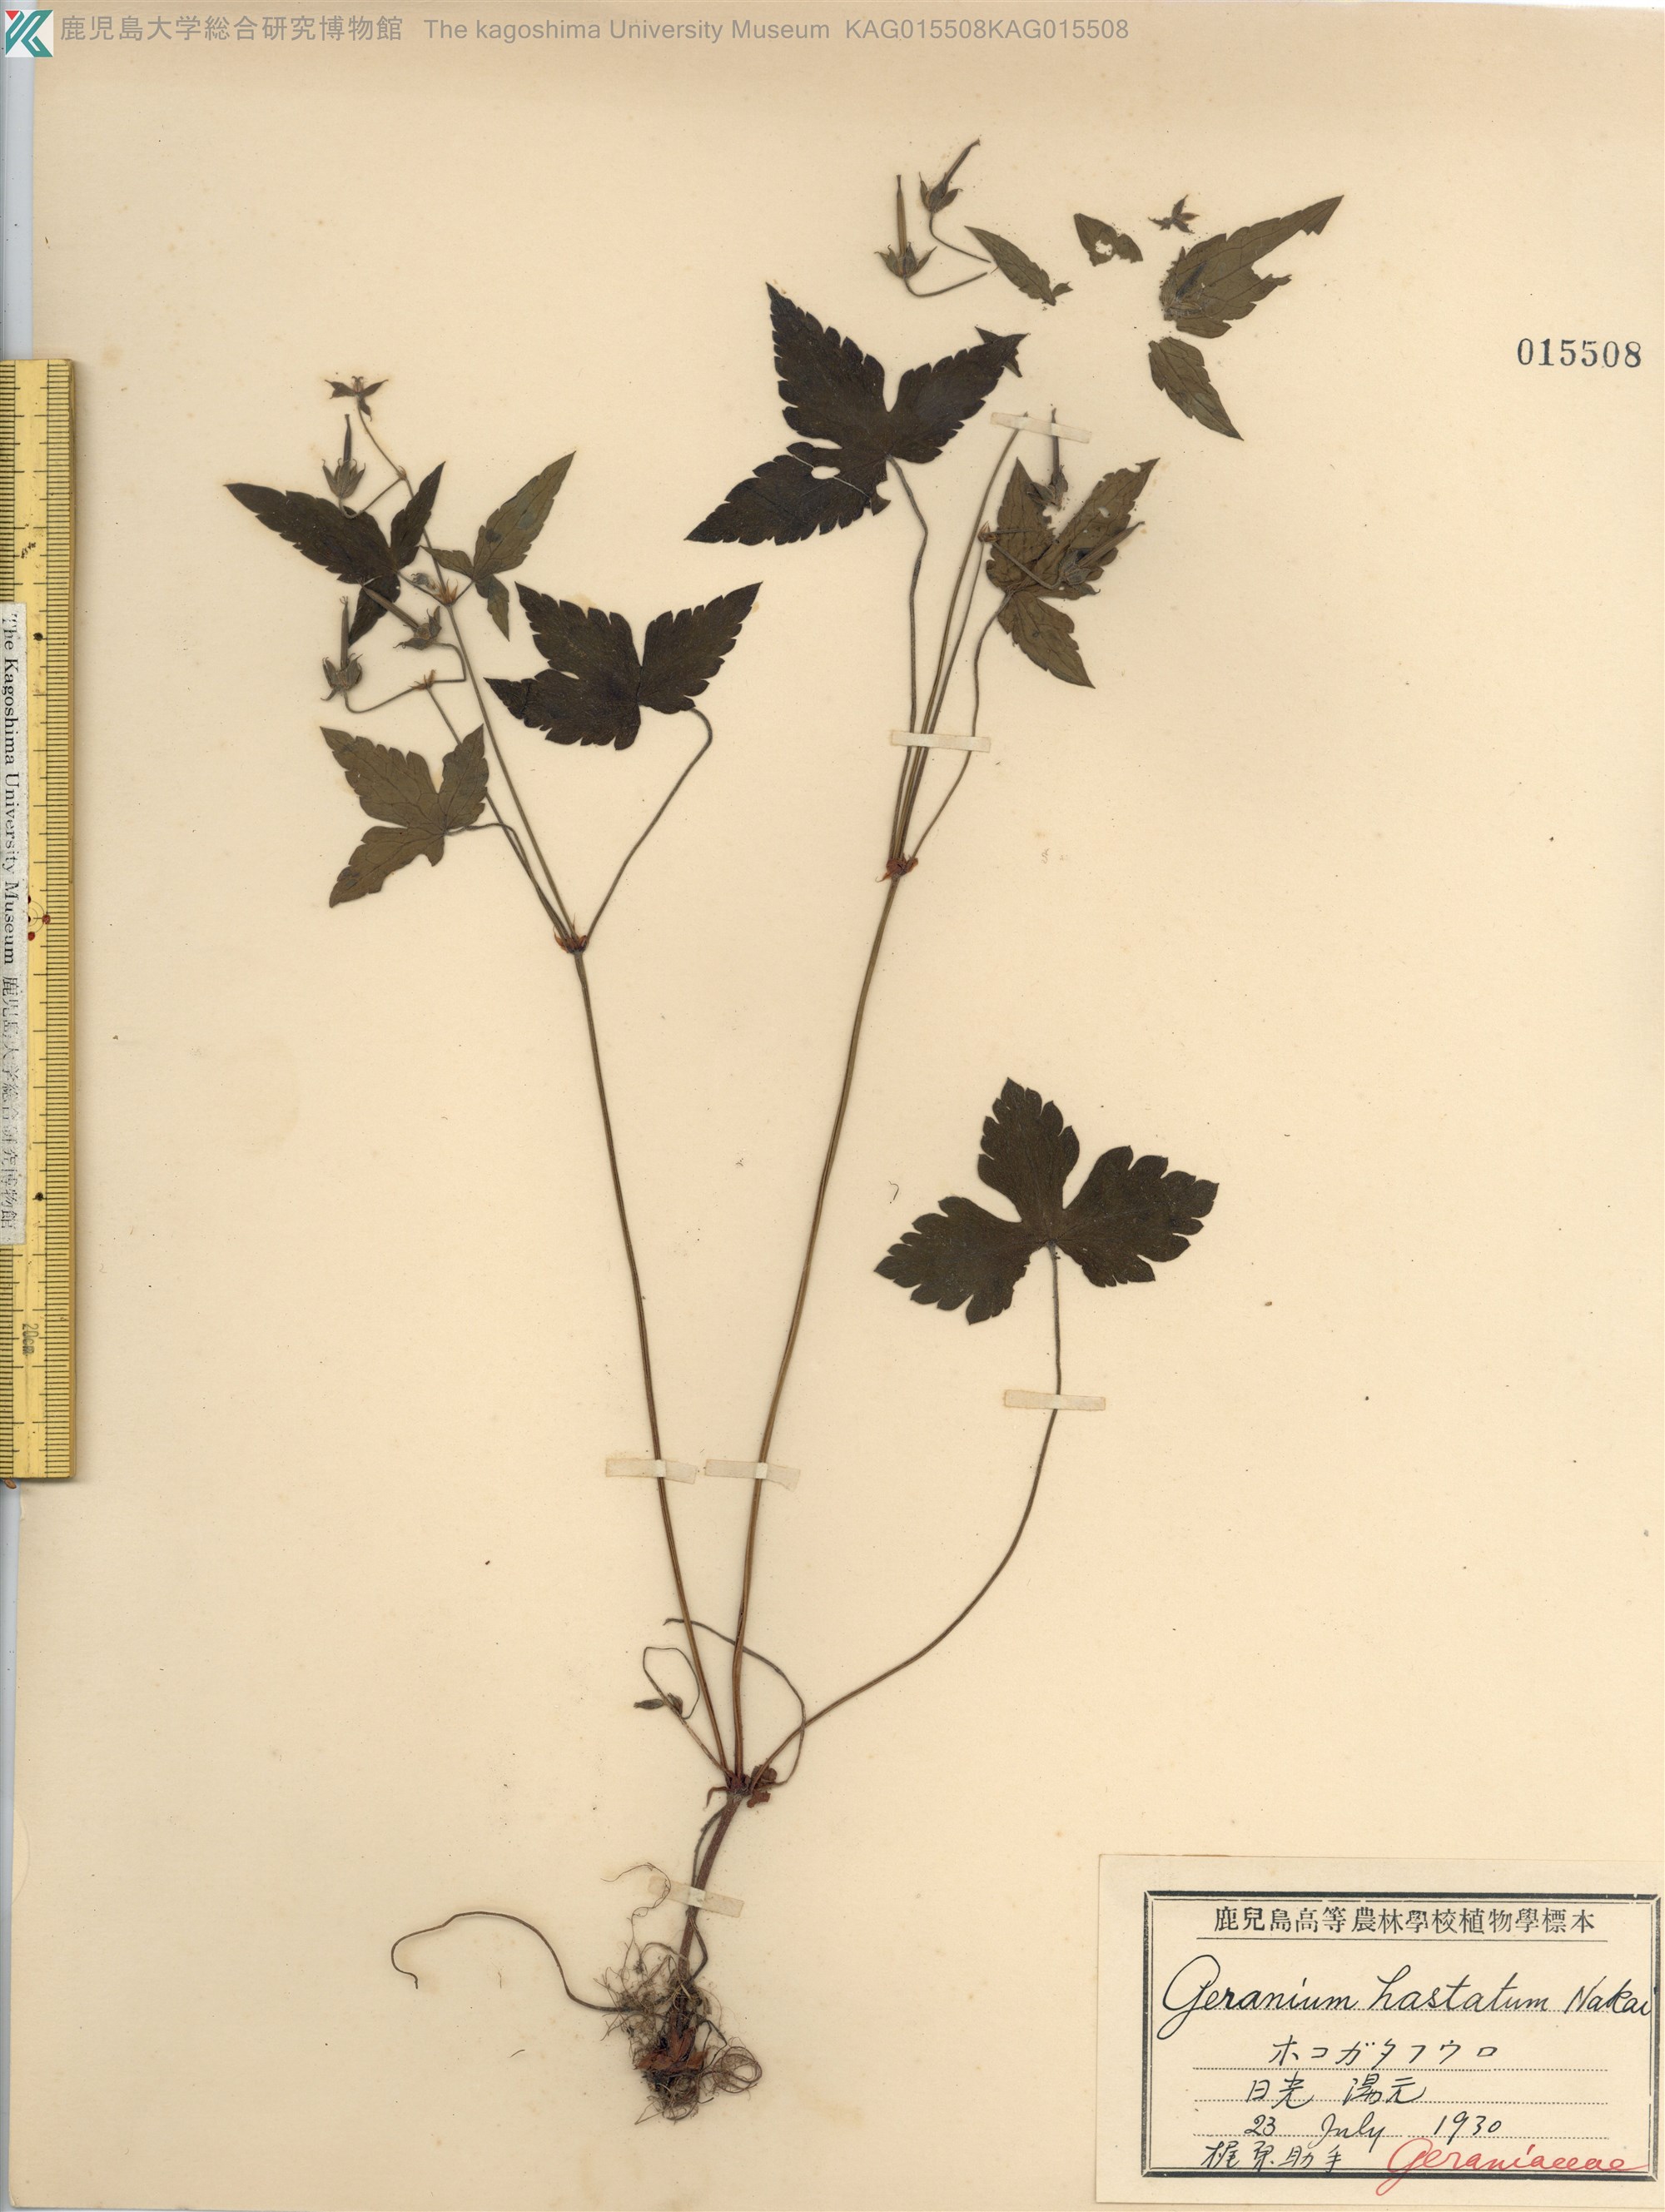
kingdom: Plantae
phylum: Tracheophyta
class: Magnoliopsida
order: Geraniales
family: Geraniaceae
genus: Geranium
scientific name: Geranium tripartitum
